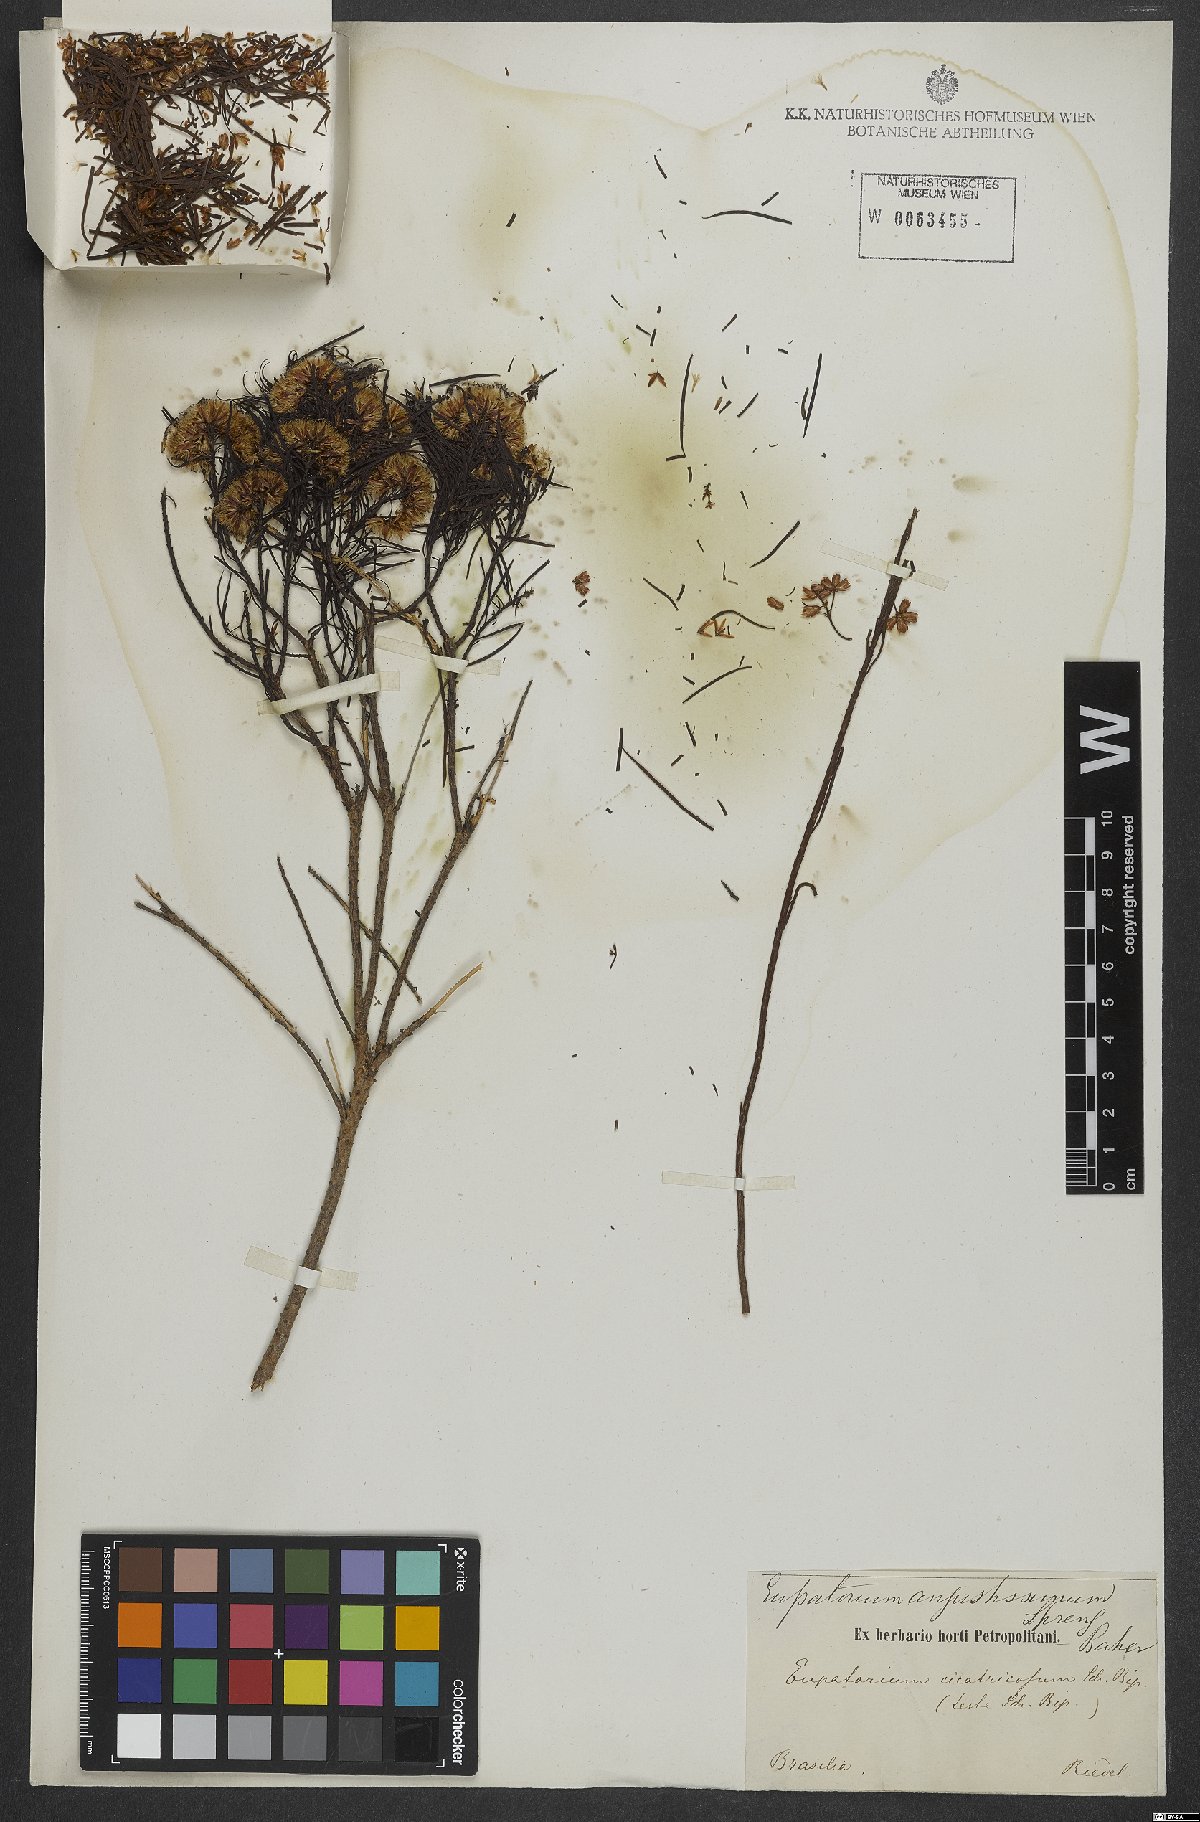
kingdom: Plantae
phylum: Tracheophyta
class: Magnoliopsida
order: Asterales
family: Asteraceae
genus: Pseudobrickellia
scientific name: Pseudobrickellia angustissima
